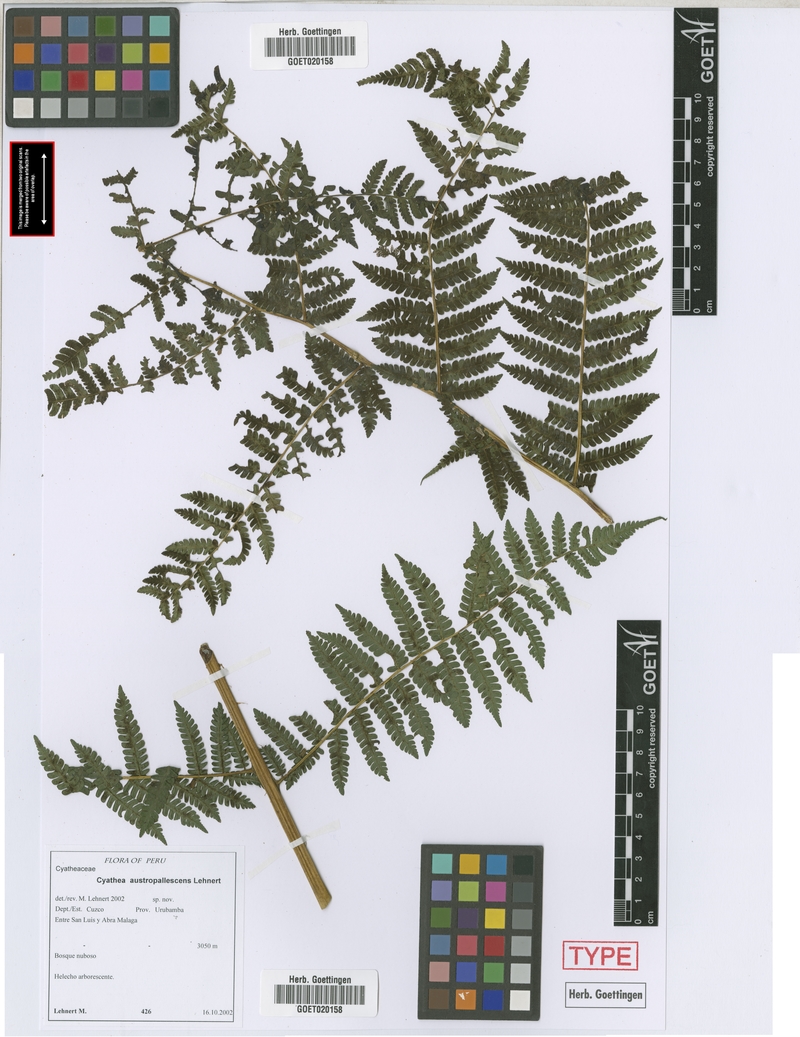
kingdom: Plantae
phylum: Tracheophyta
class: Polypodiopsida
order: Cyatheales
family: Cyatheaceae
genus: Cyathea
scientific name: Cyathea austropallescens
